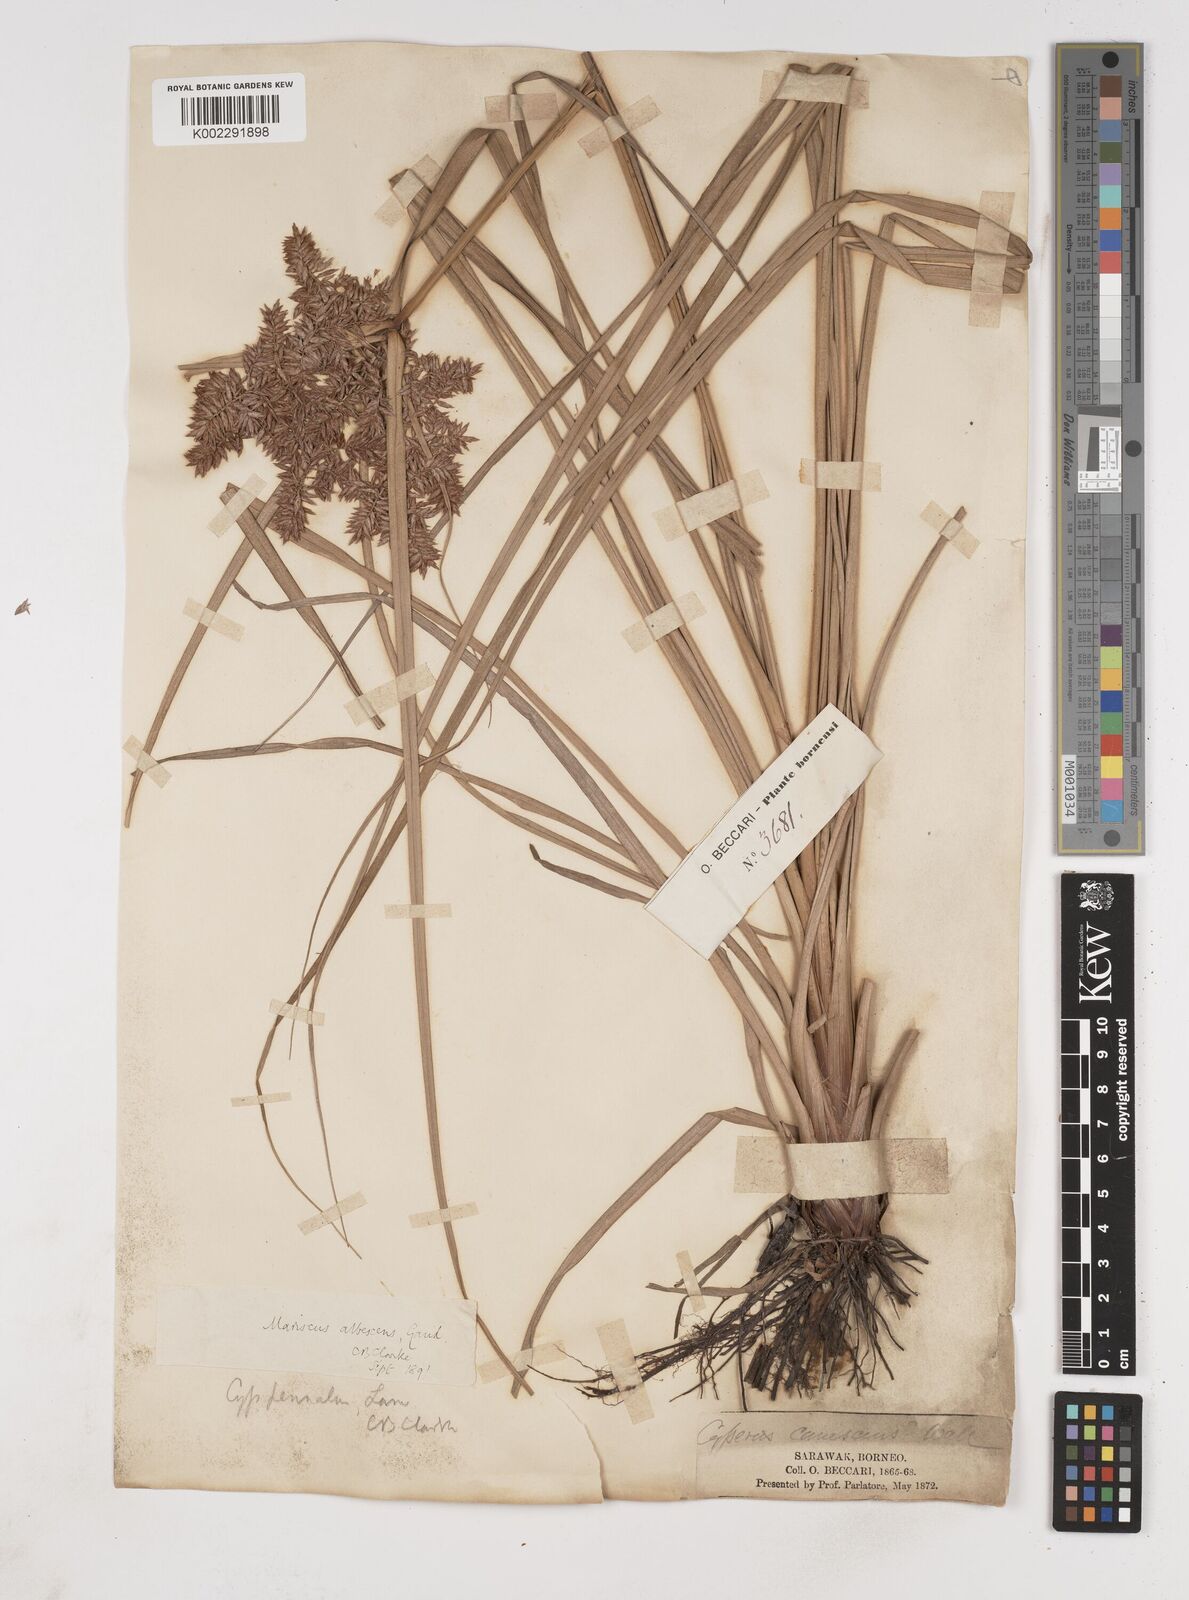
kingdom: Plantae
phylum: Tracheophyta
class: Liliopsida
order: Poales
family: Cyperaceae
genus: Cyperus
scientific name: Cyperus javanicus
